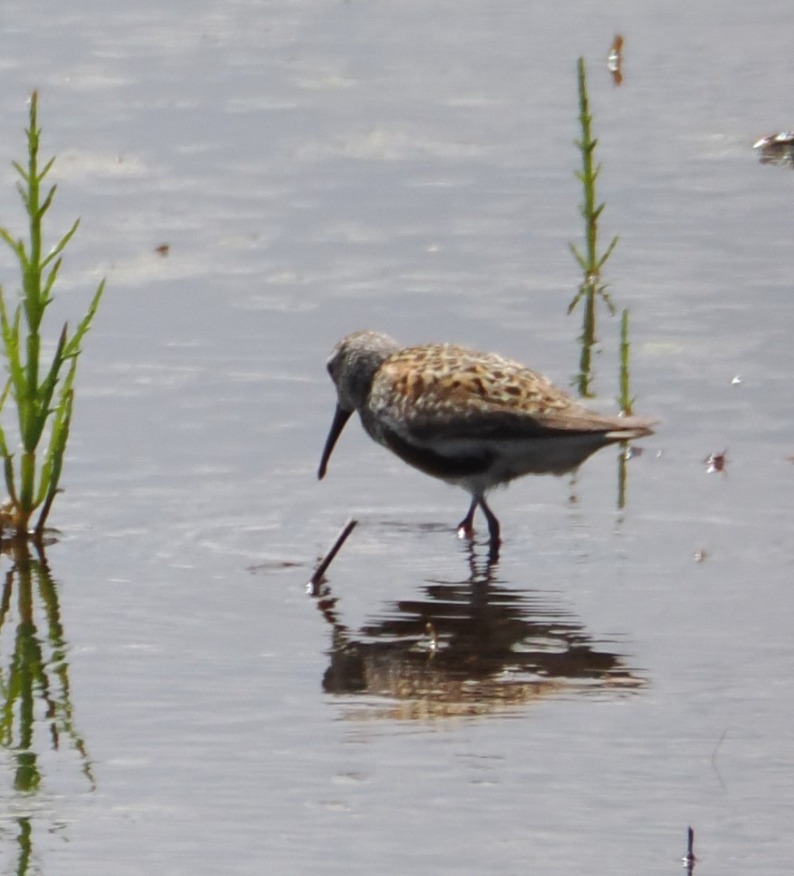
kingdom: Animalia
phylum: Chordata
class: Aves
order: Charadriiformes
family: Scolopacidae
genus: Calidris
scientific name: Calidris alpina
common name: Almindelig ryle
